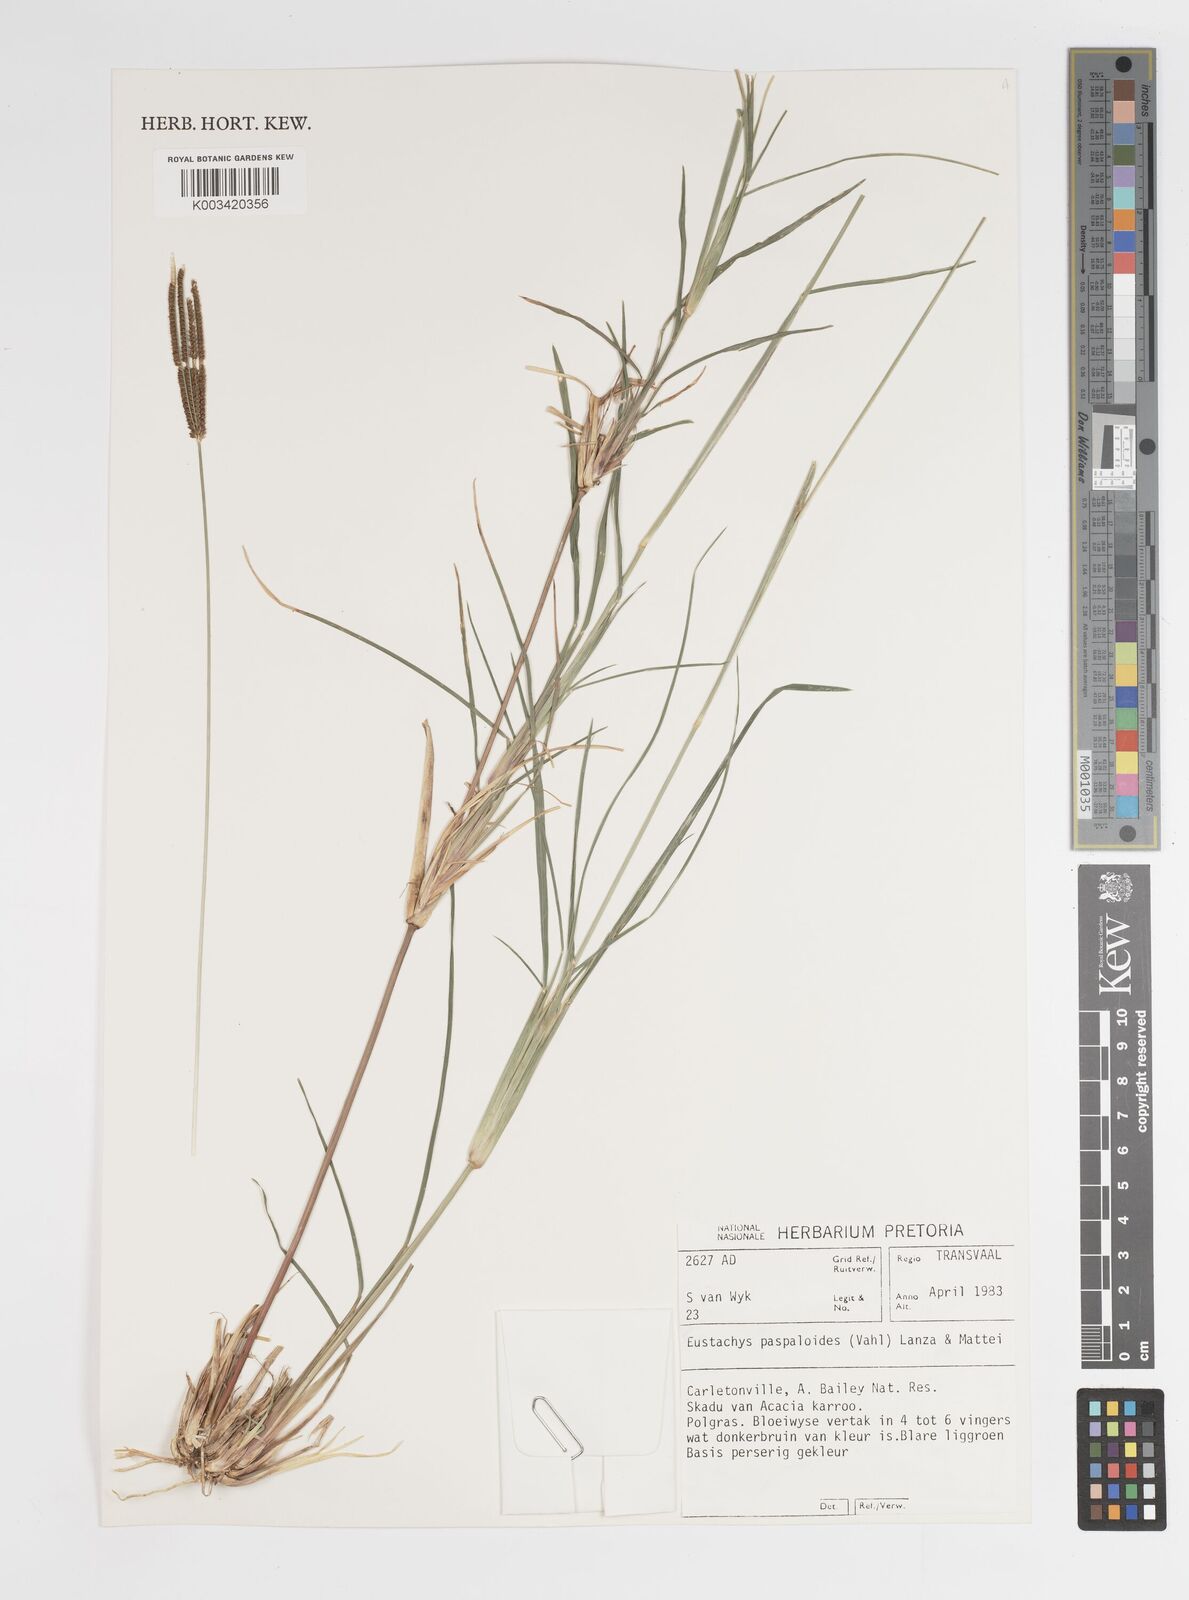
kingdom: Plantae
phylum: Tracheophyta
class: Liliopsida
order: Poales
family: Poaceae
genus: Eustachys
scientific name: Eustachys paspaloides
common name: Caribbean fingergrass
